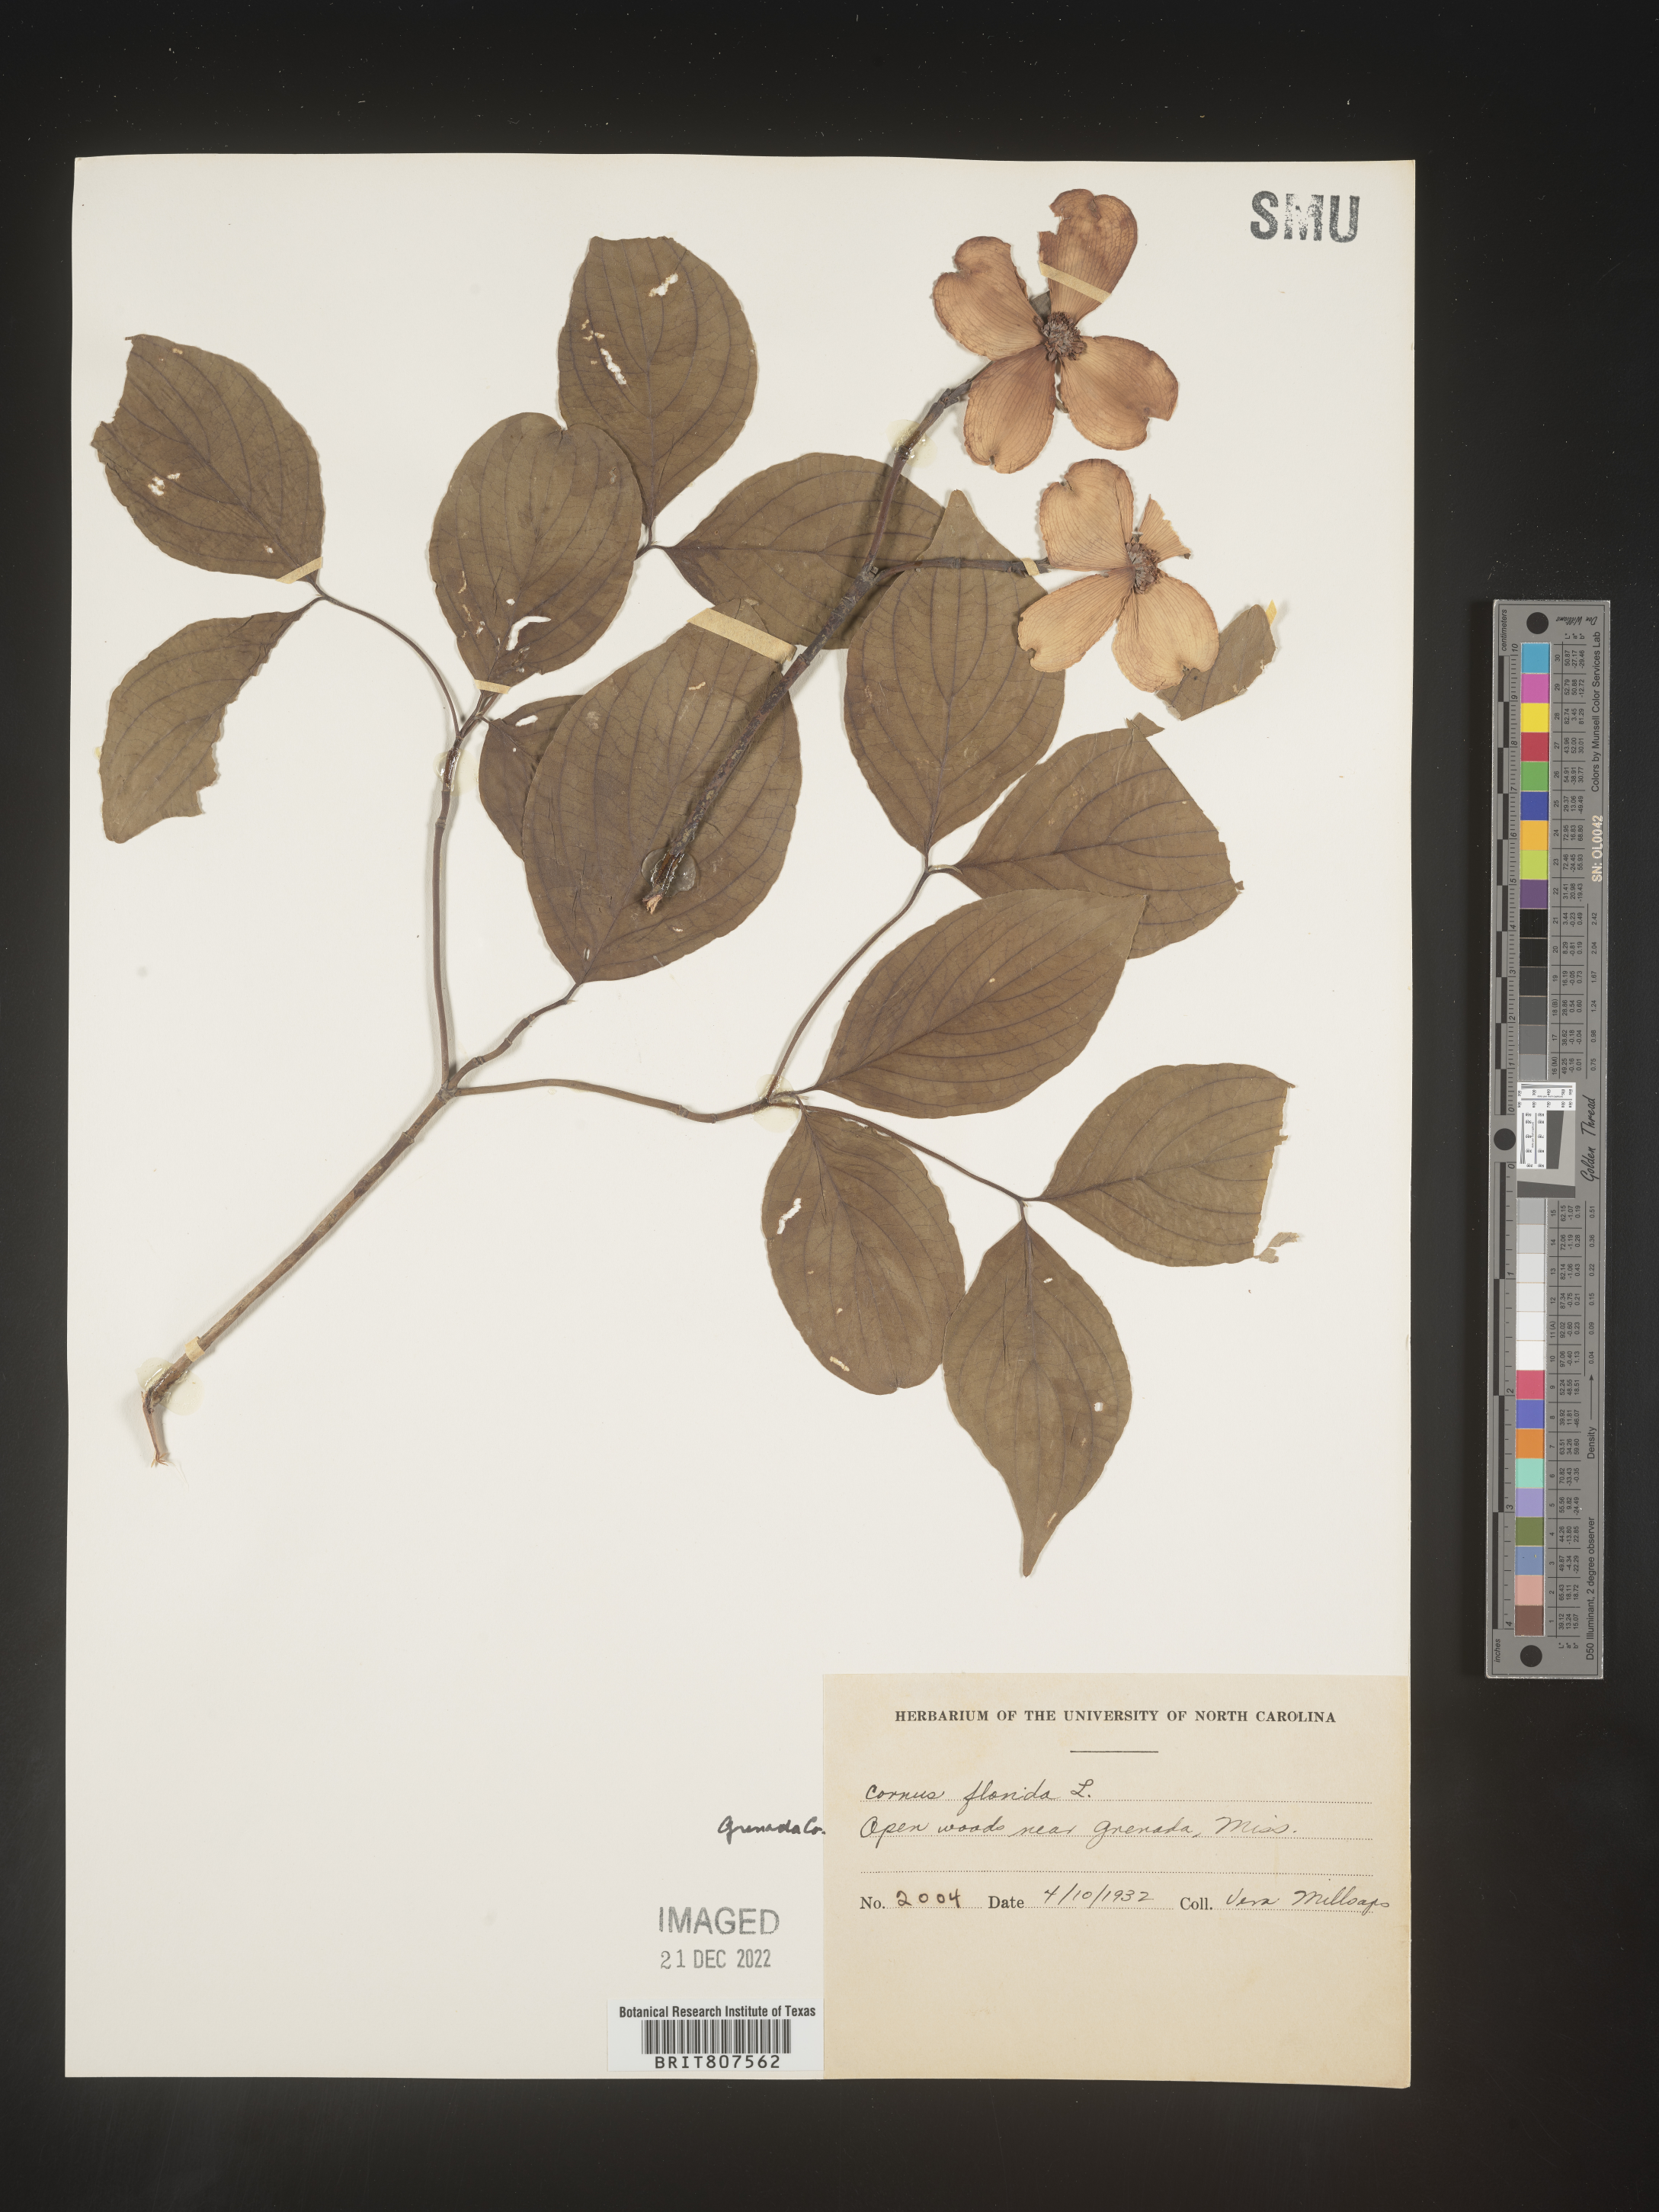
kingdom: Plantae
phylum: Tracheophyta
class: Magnoliopsida
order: Cornales
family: Cornaceae
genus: Cornus
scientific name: Cornus florida
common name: Flowering dogwood
